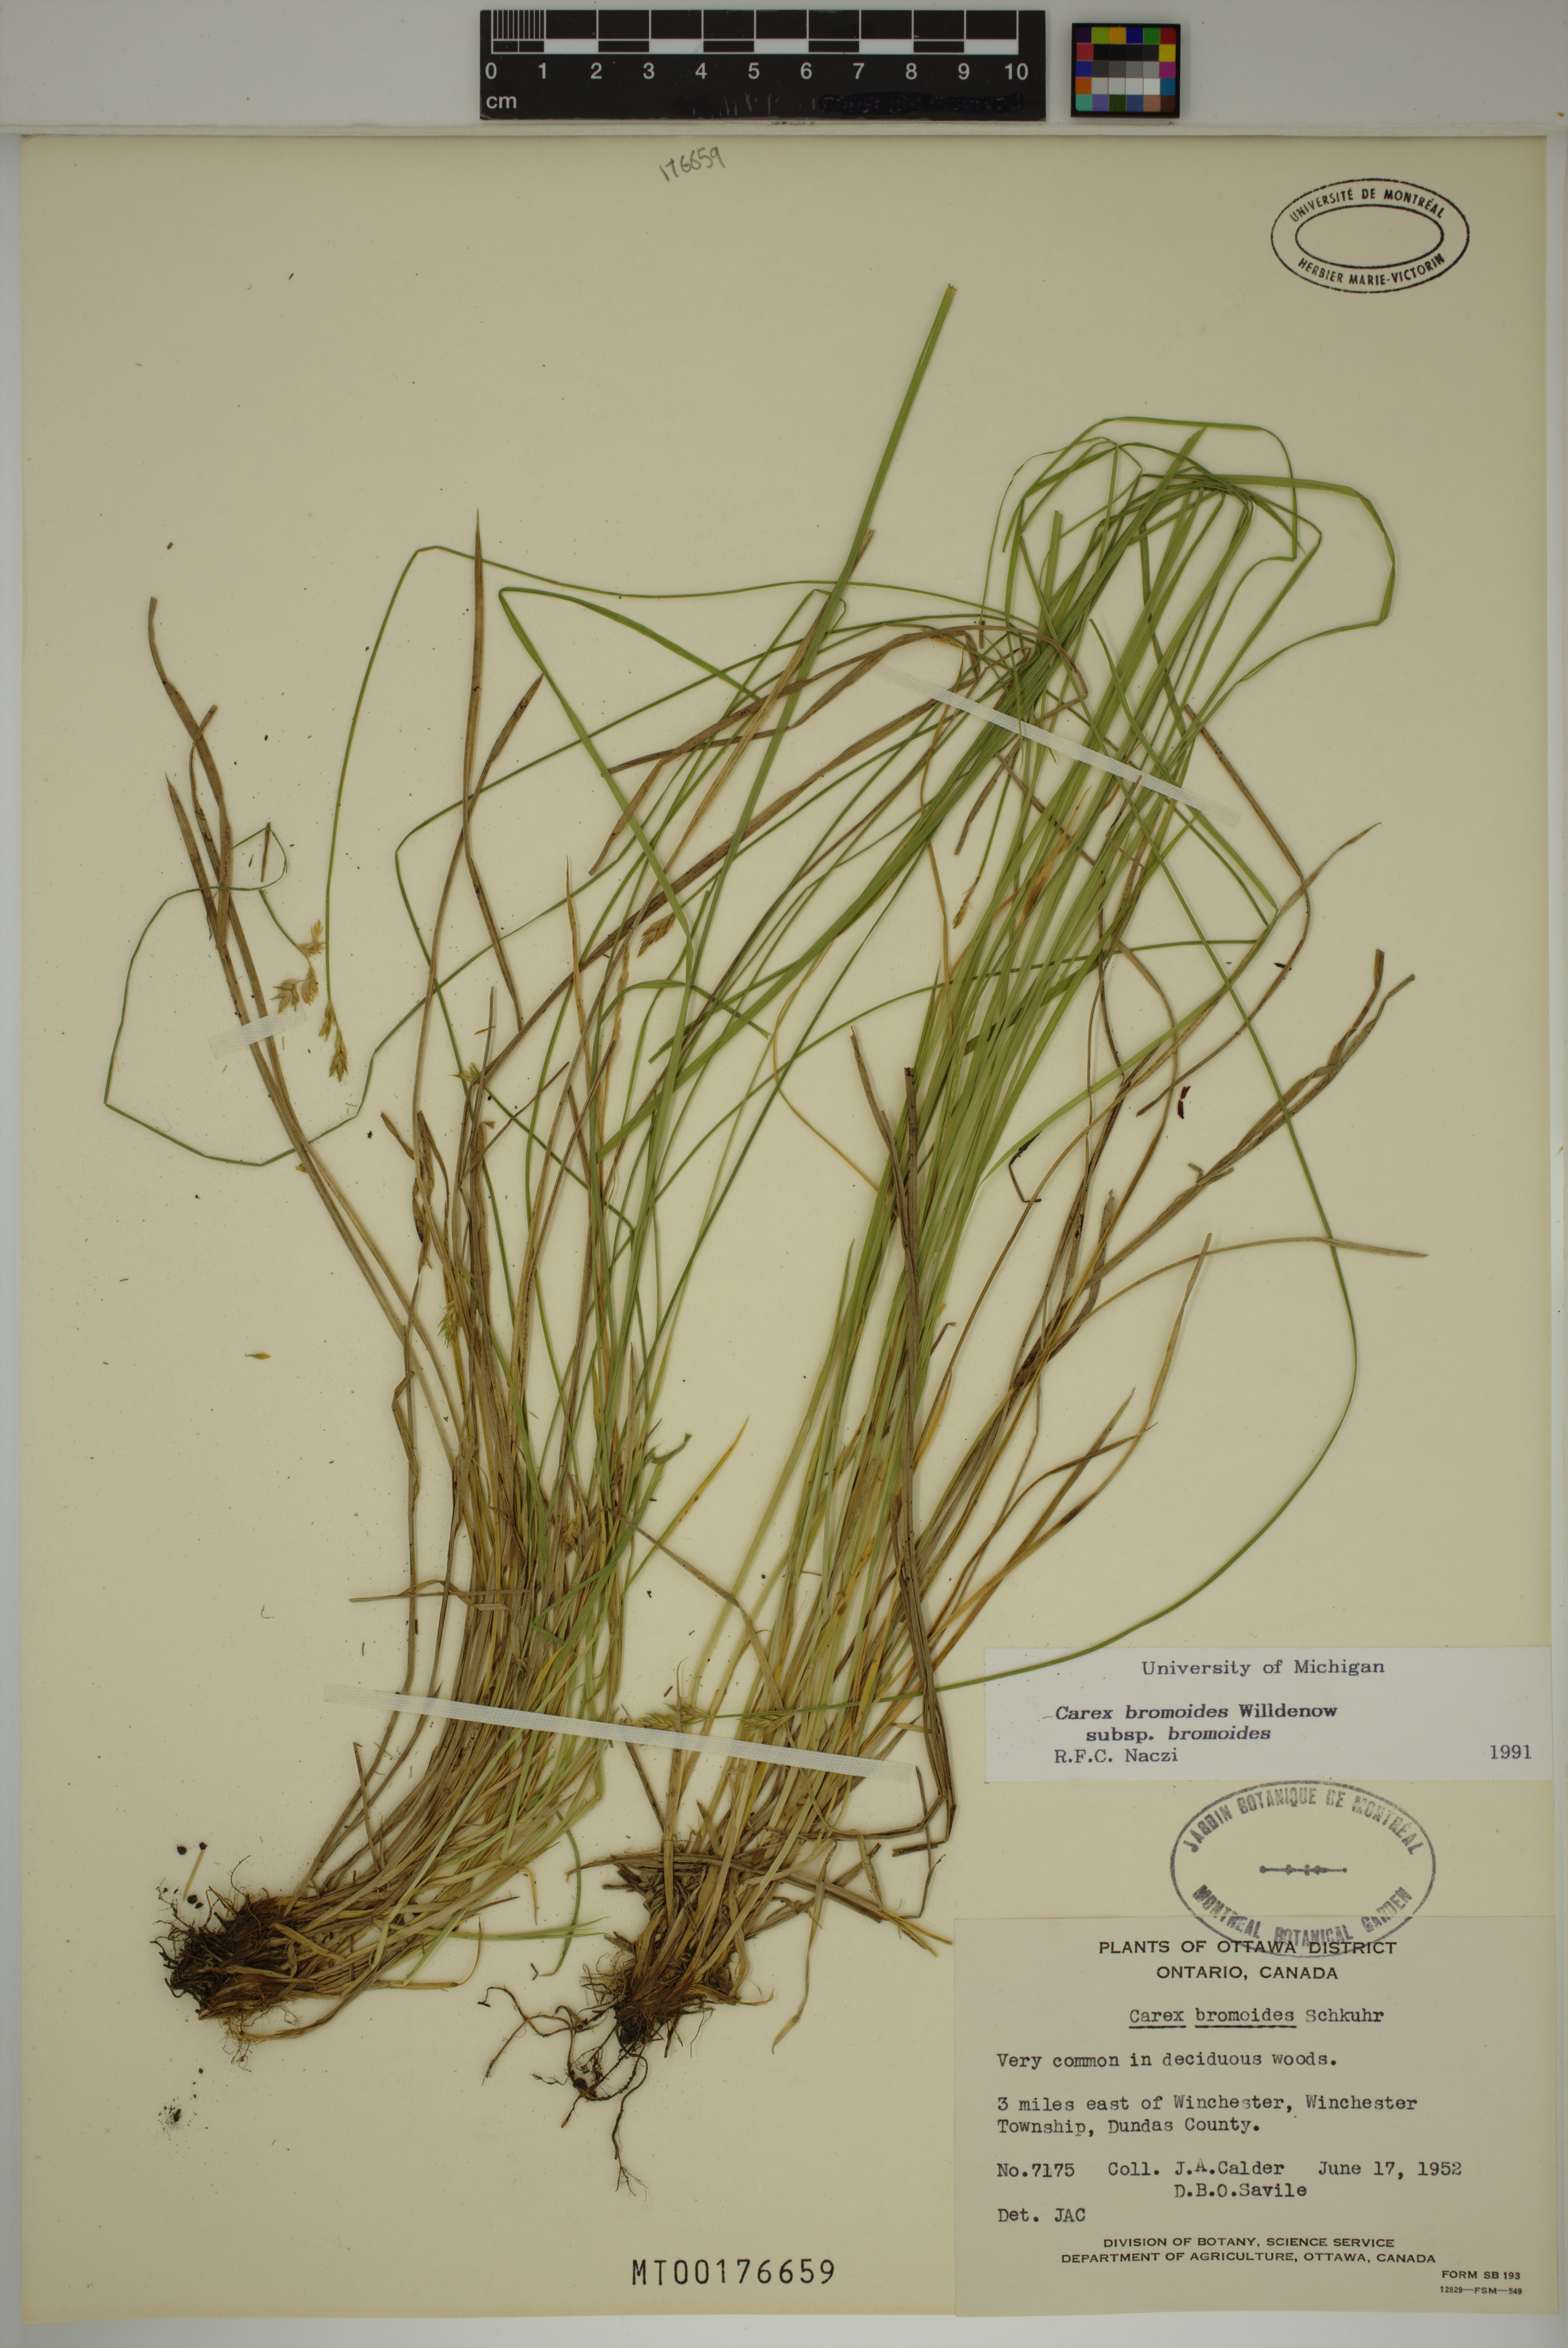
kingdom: Plantae
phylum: Tracheophyta
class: Liliopsida
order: Poales
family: Cyperaceae
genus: Carex
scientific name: Carex bromoides
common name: Brome hummock sedge
